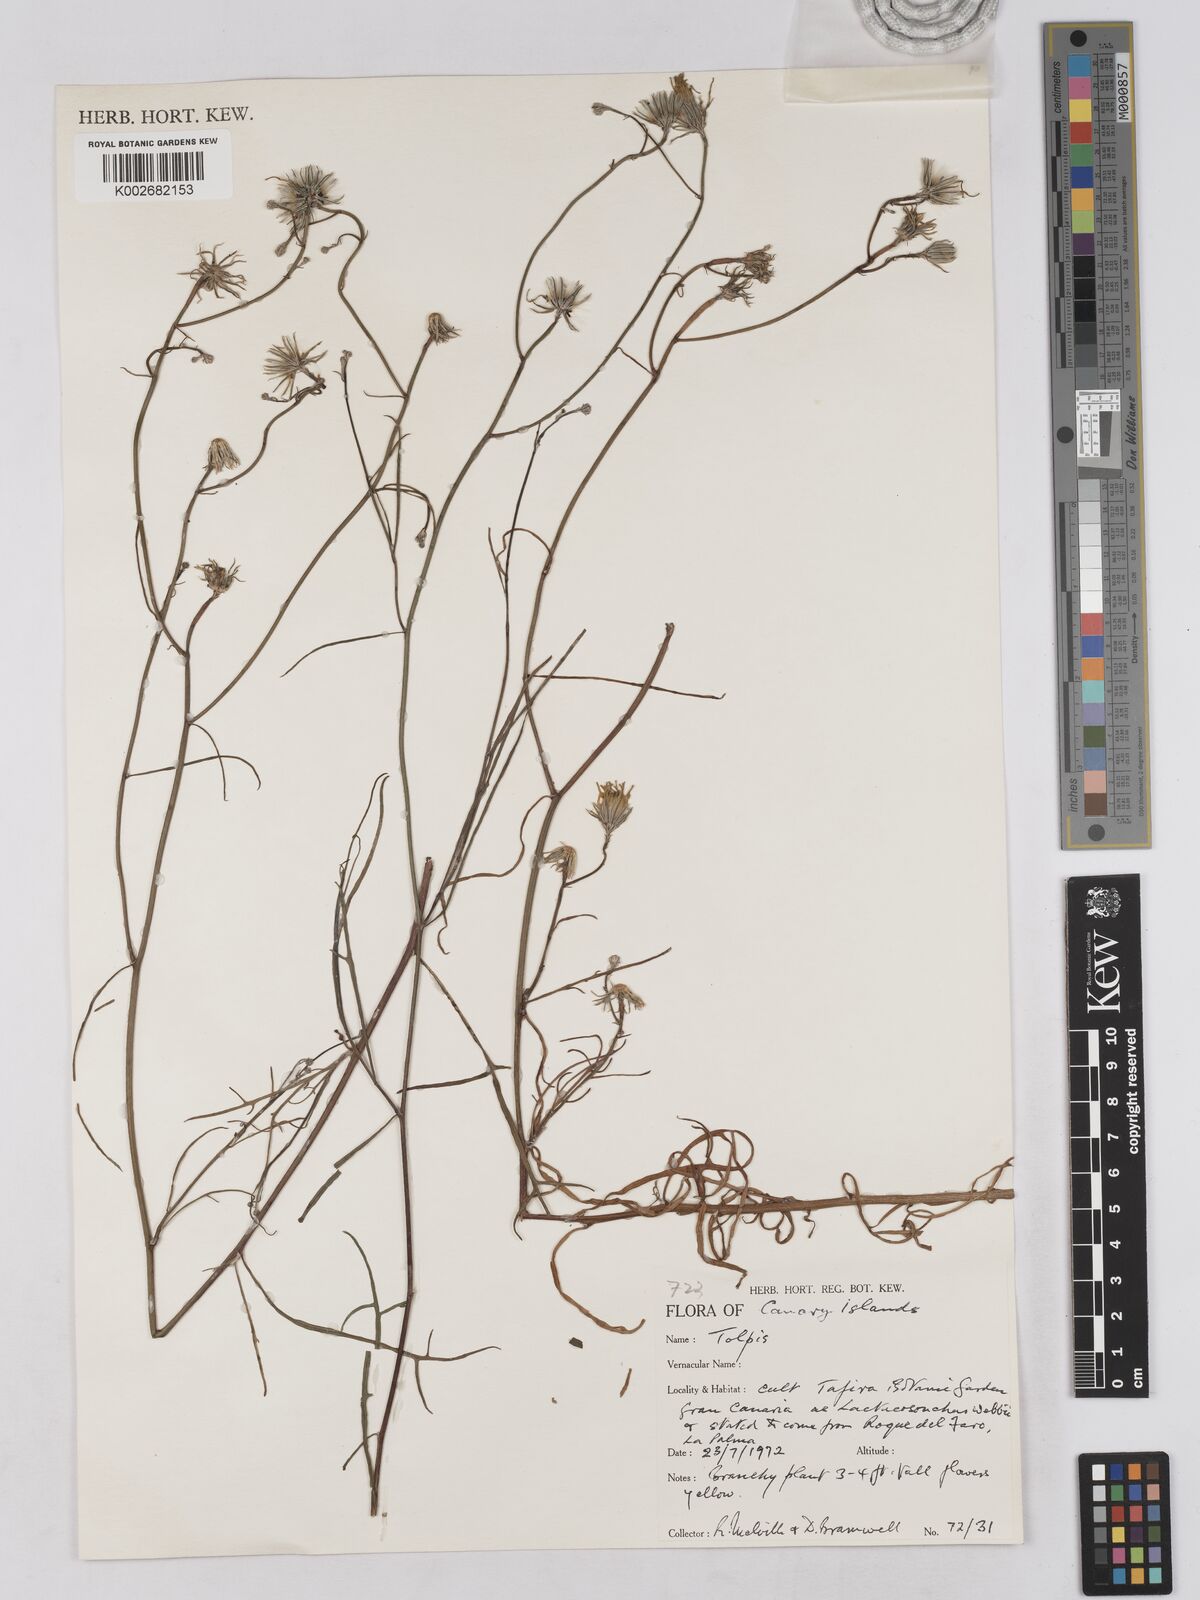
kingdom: Plantae
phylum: Tracheophyta
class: Magnoliopsida
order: Asterales
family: Asteraceae
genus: Tolpis
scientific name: Tolpis
